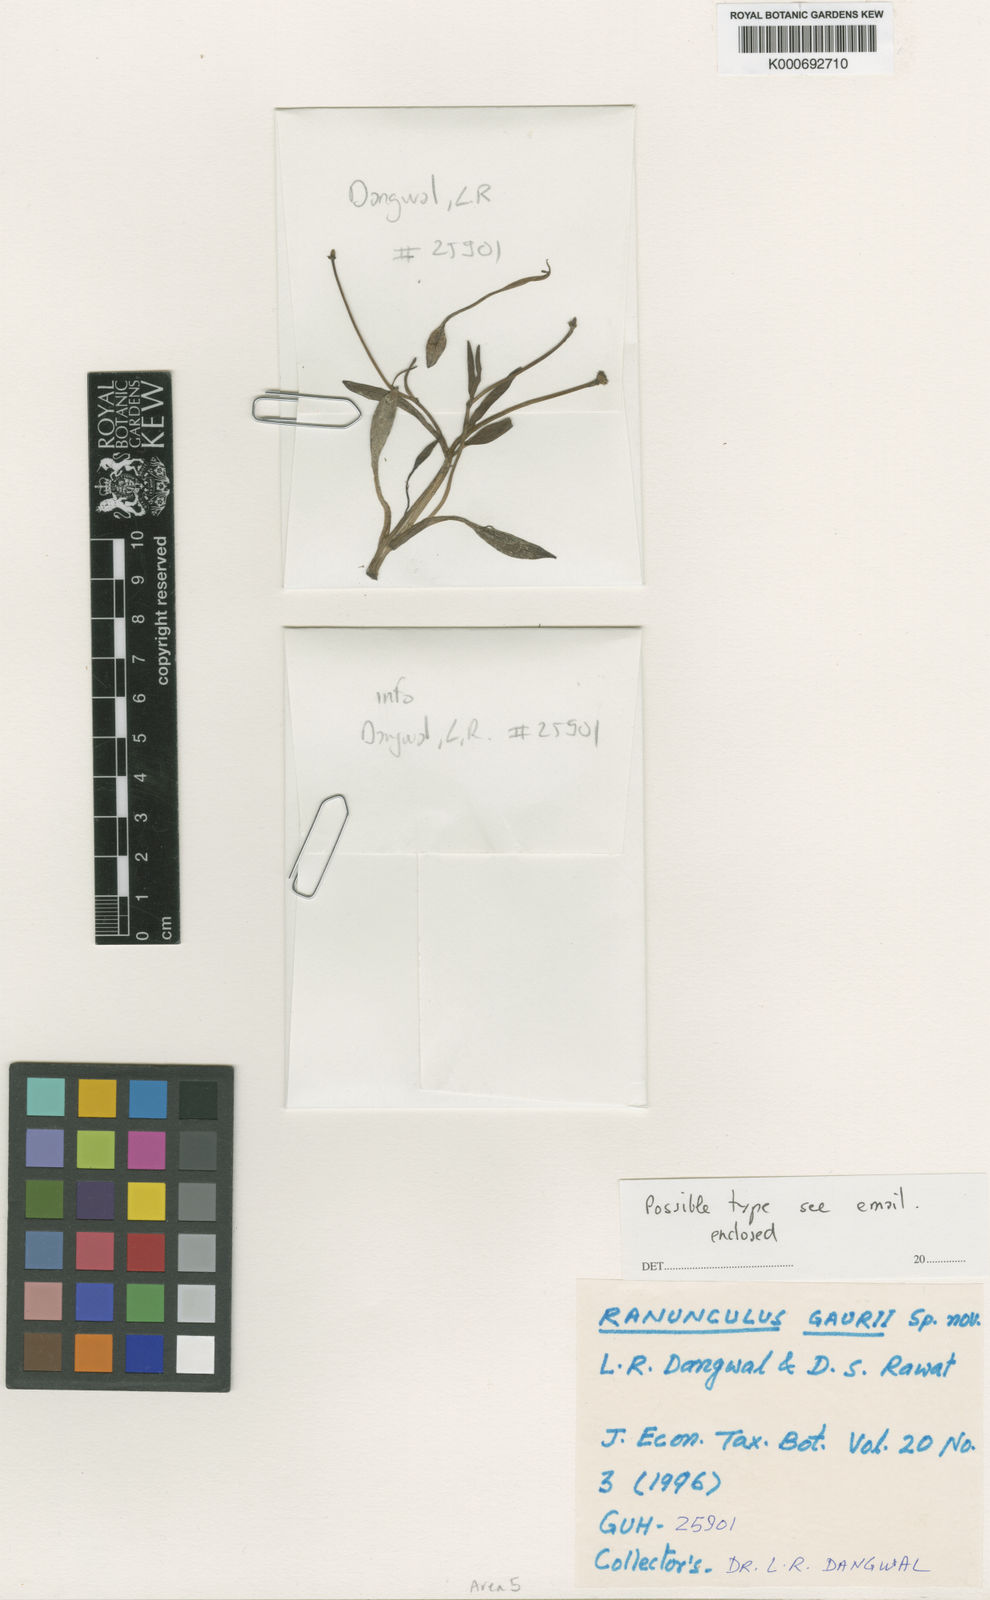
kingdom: Plantae
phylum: Tracheophyta
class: Magnoliopsida
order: Ranunculales
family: Ranunculaceae
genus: Ranunculus
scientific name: Ranunculus pulchellus
